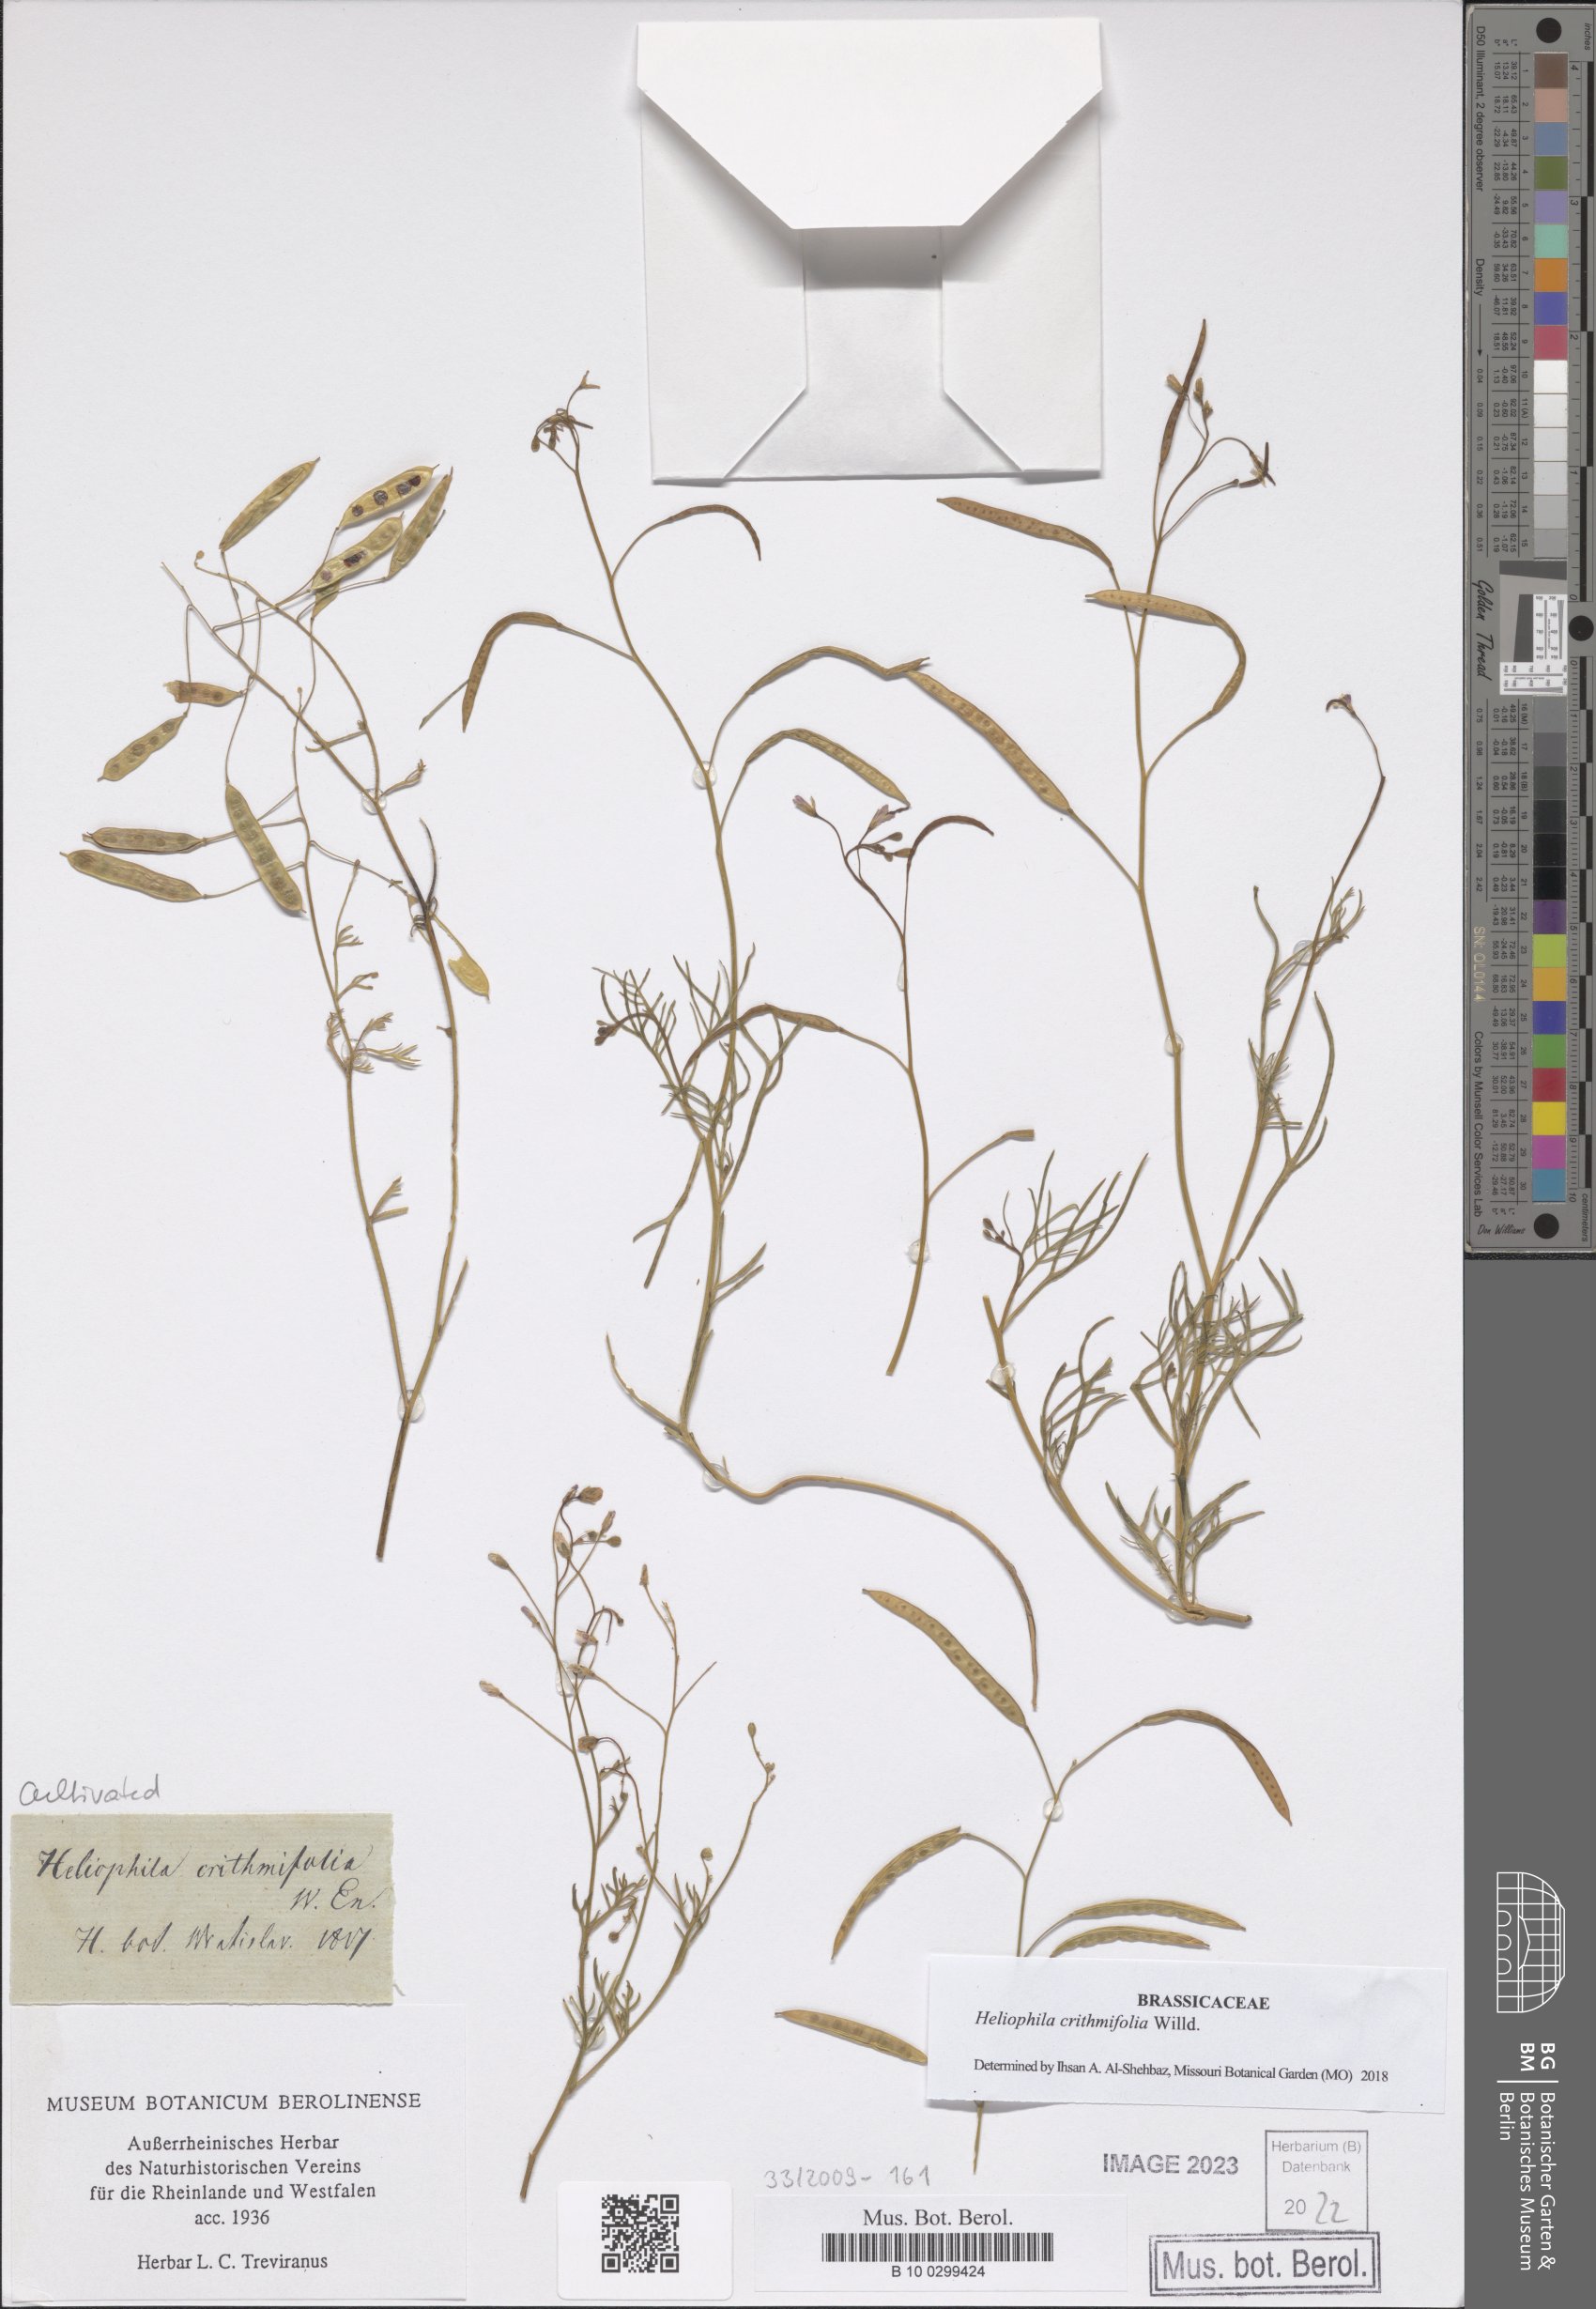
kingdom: Plantae
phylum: Tracheophyta
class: Magnoliopsida
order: Brassicales
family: Brassicaceae
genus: Heliophila
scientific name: Heliophila crithmifolia
